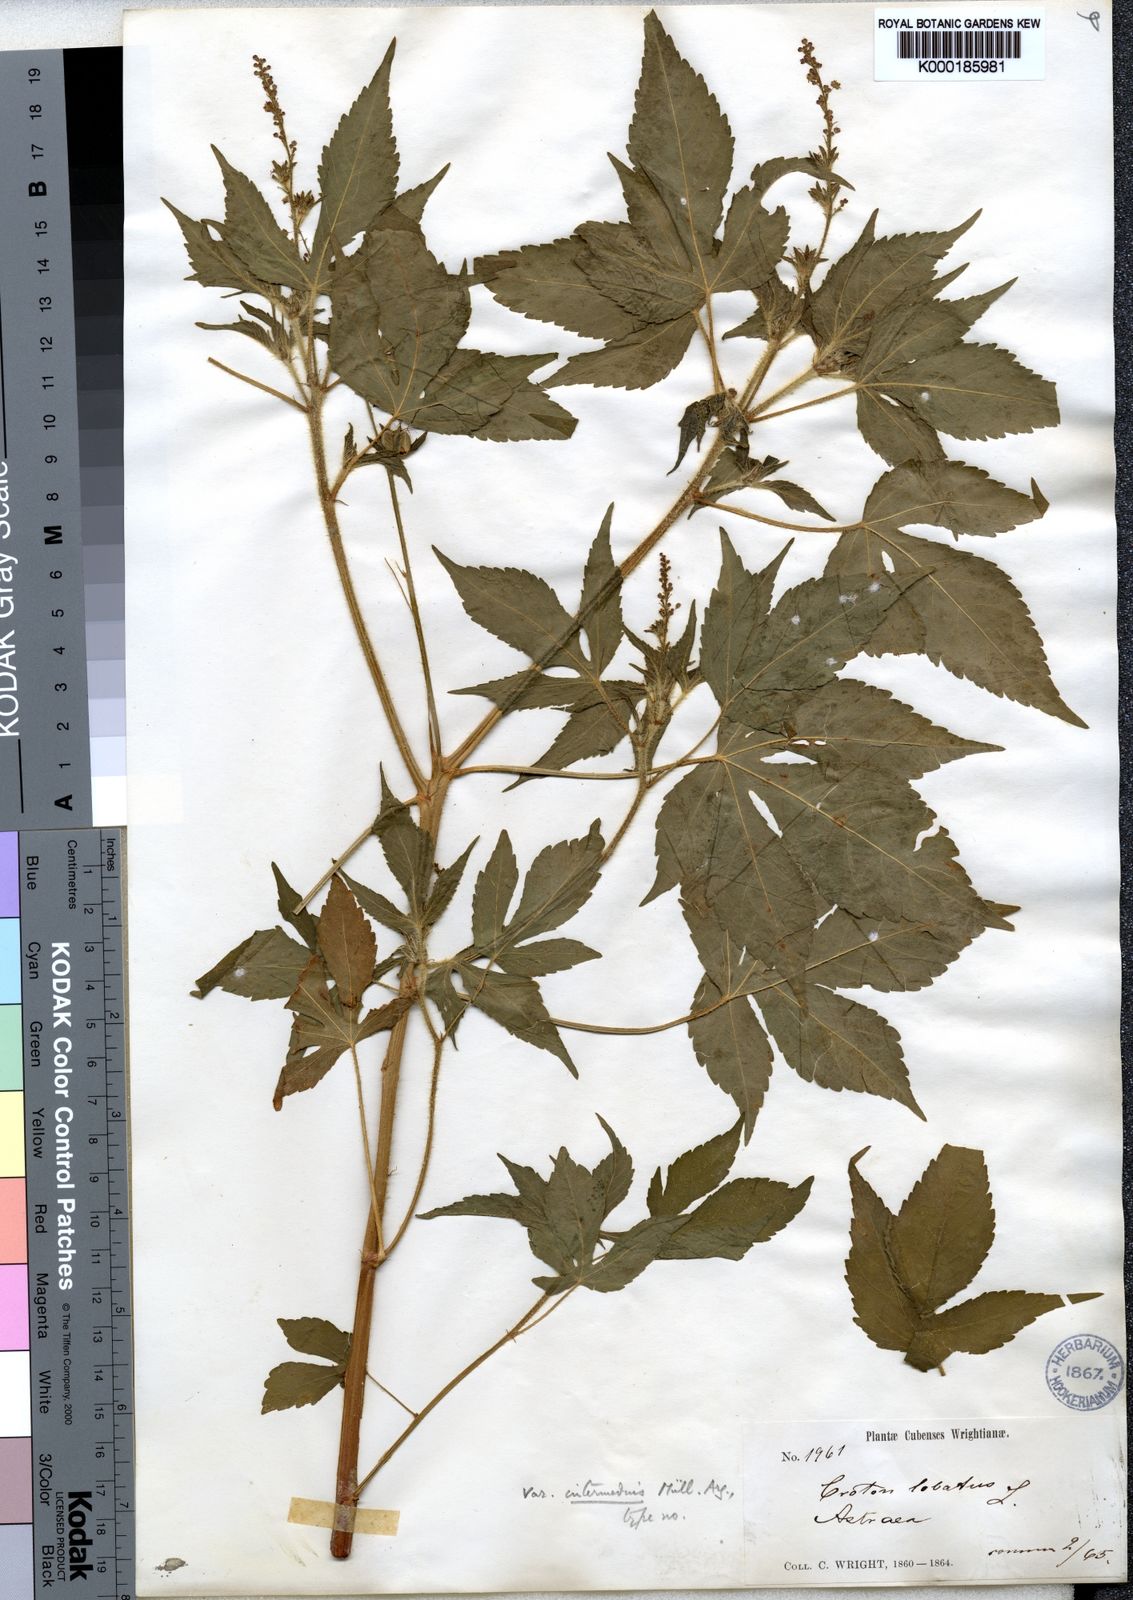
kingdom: Plantae
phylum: Tracheophyta
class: Magnoliopsida
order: Malpighiales
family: Euphorbiaceae
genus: Astraea
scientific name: Astraea lobata
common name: Lobed croton
